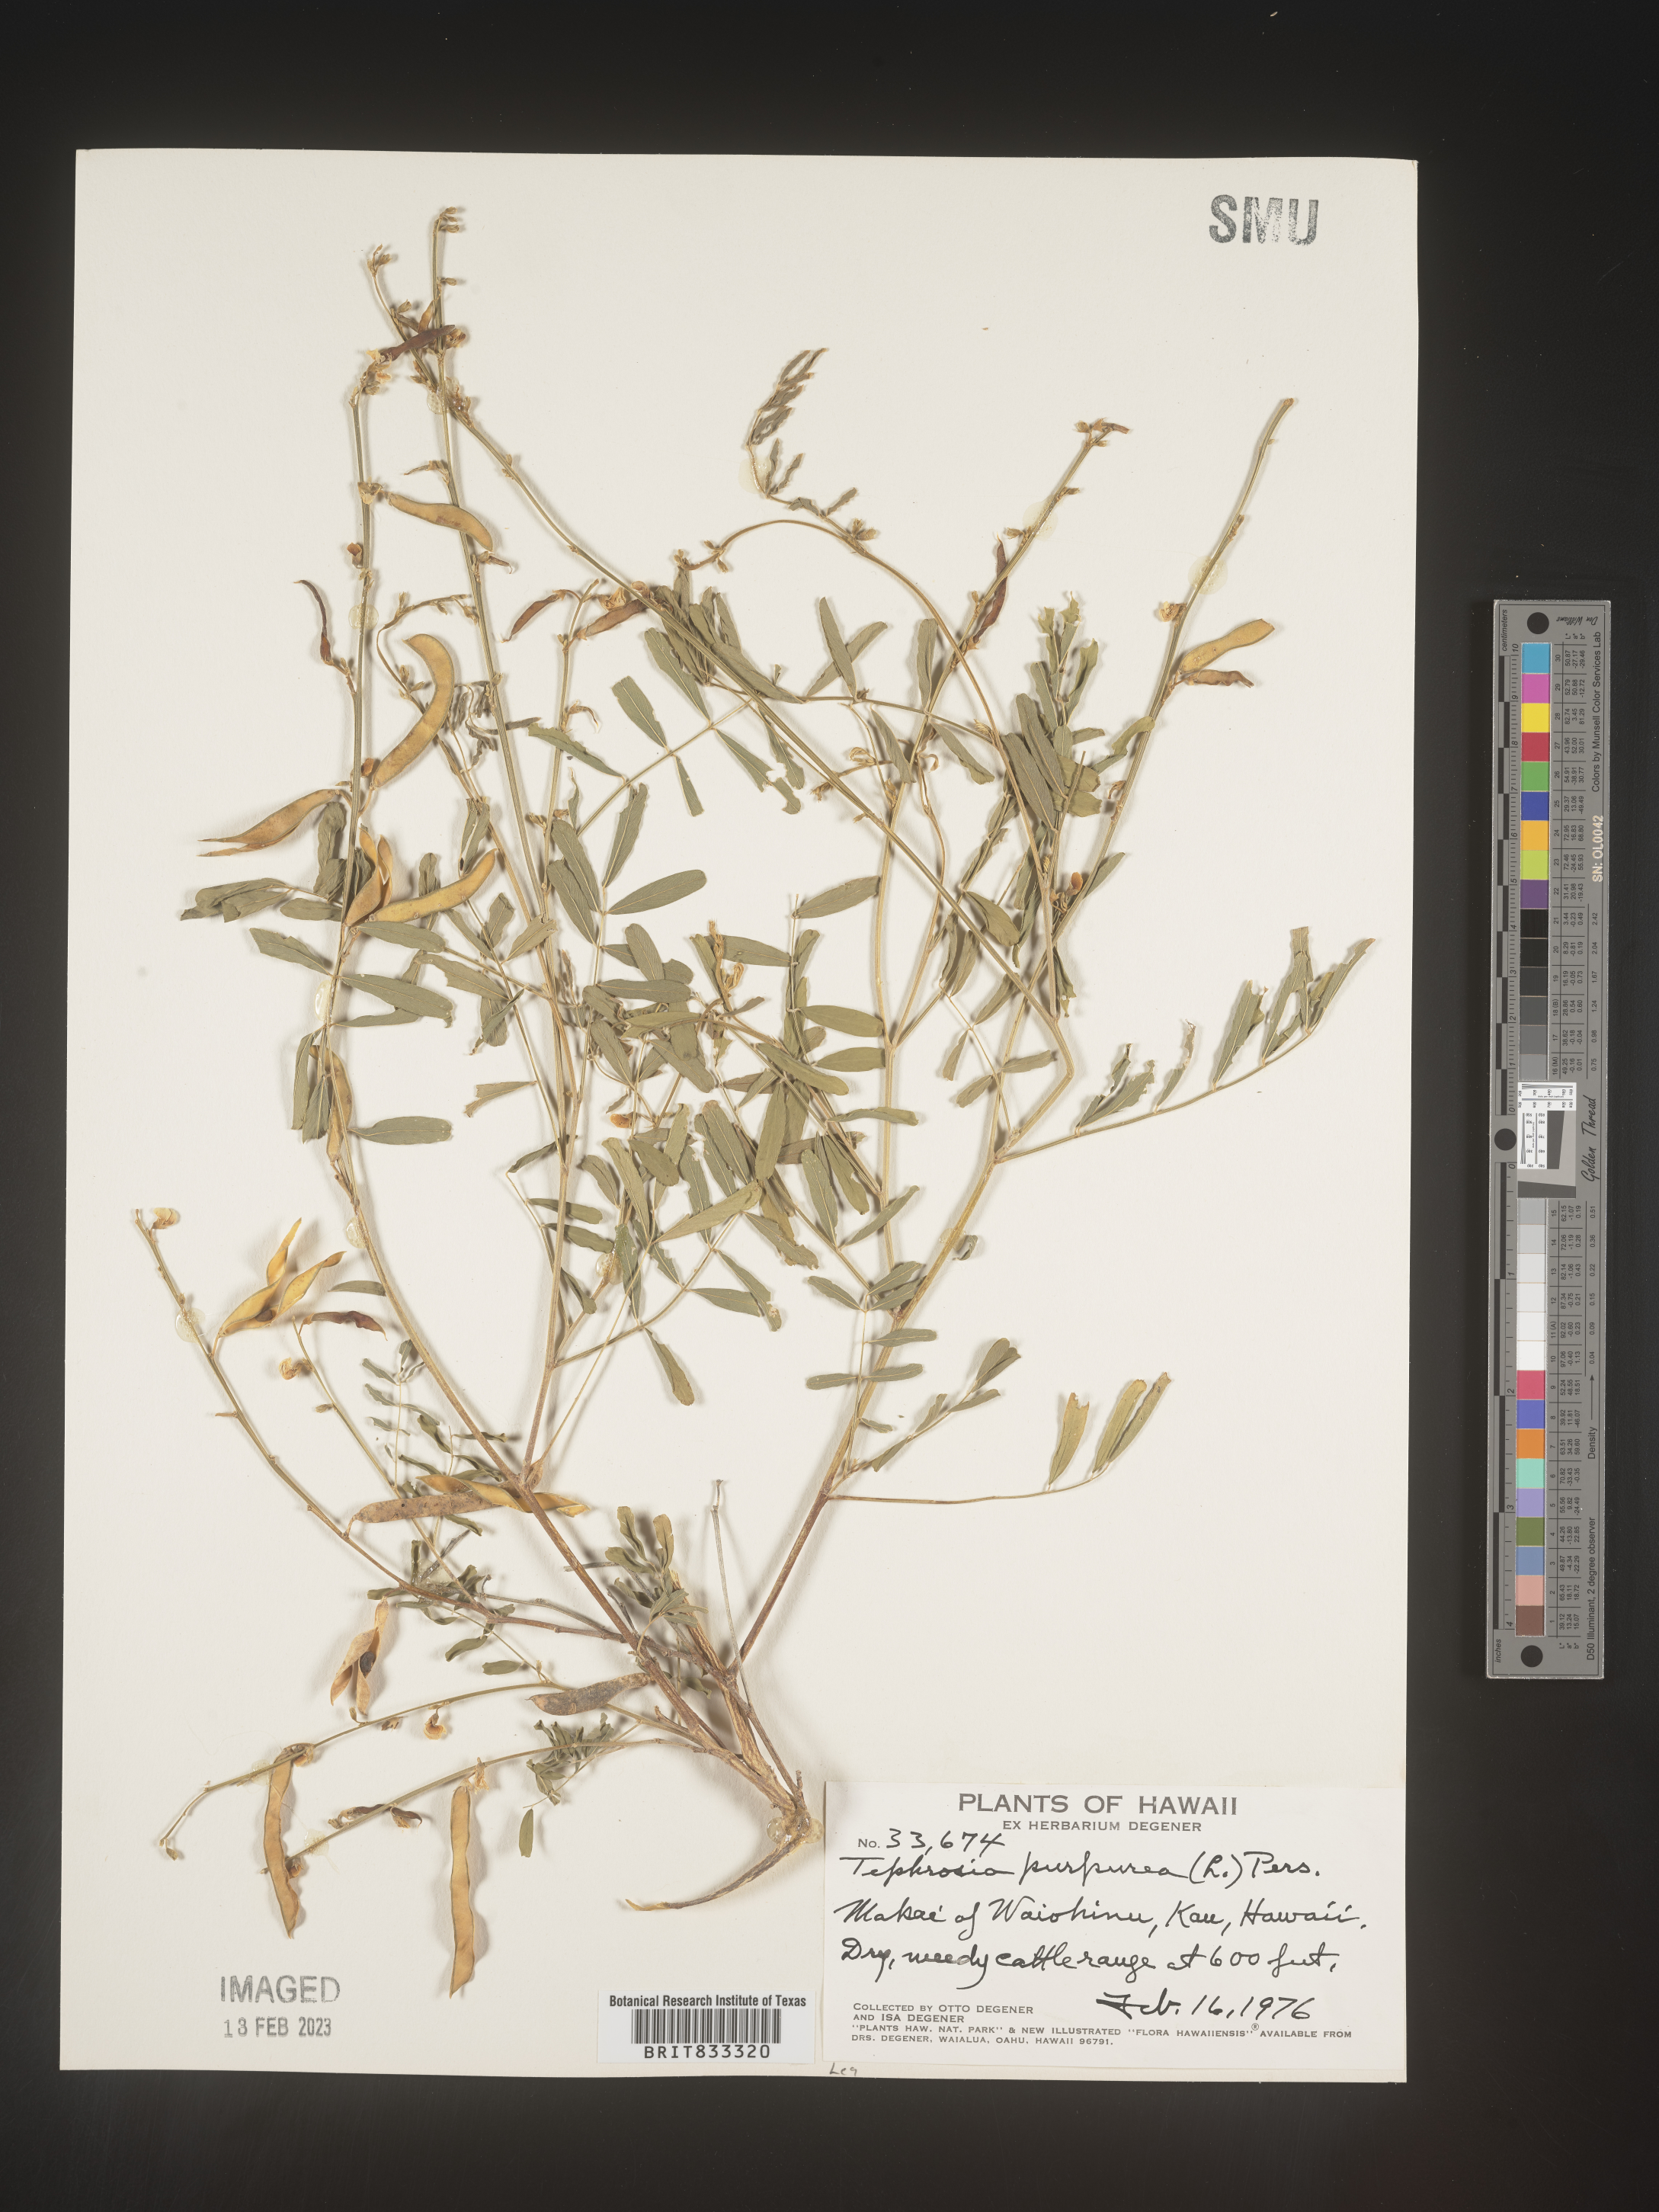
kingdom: Plantae
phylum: Tracheophyta
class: Magnoliopsida
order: Fabales
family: Fabaceae
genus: Tephrosia
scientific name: Tephrosia
